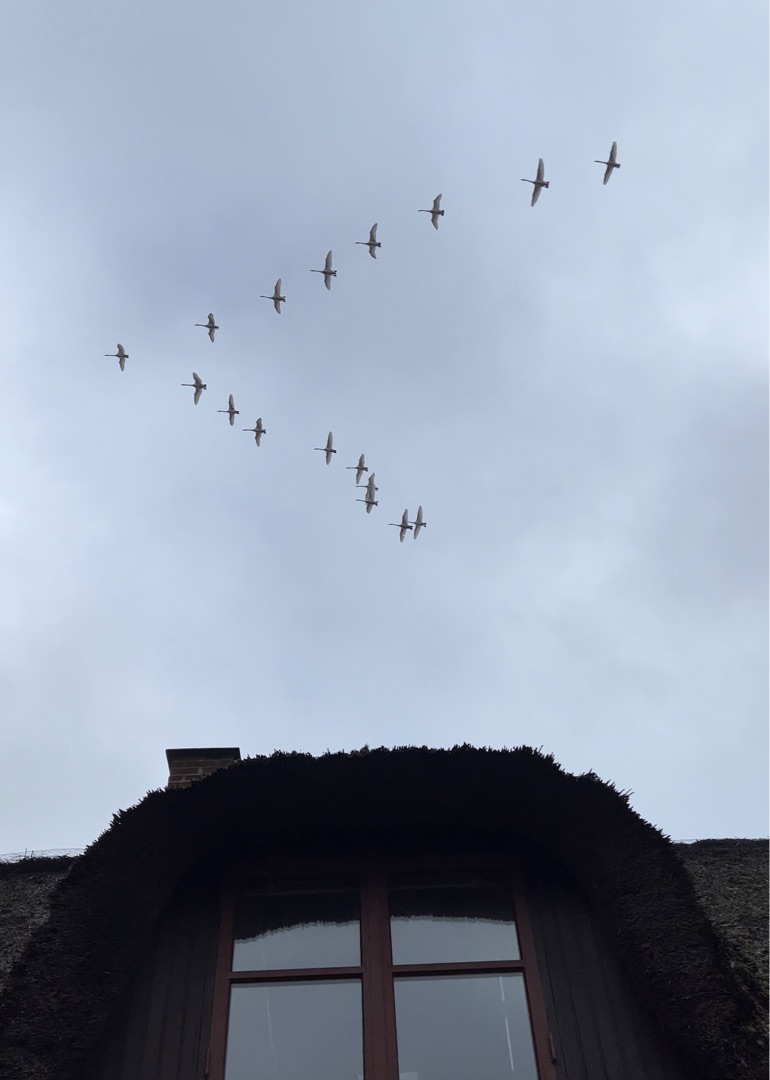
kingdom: Animalia
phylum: Chordata
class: Aves
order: Anseriformes
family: Anatidae
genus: Cygnus
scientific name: Cygnus cygnus
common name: Sangsvane
